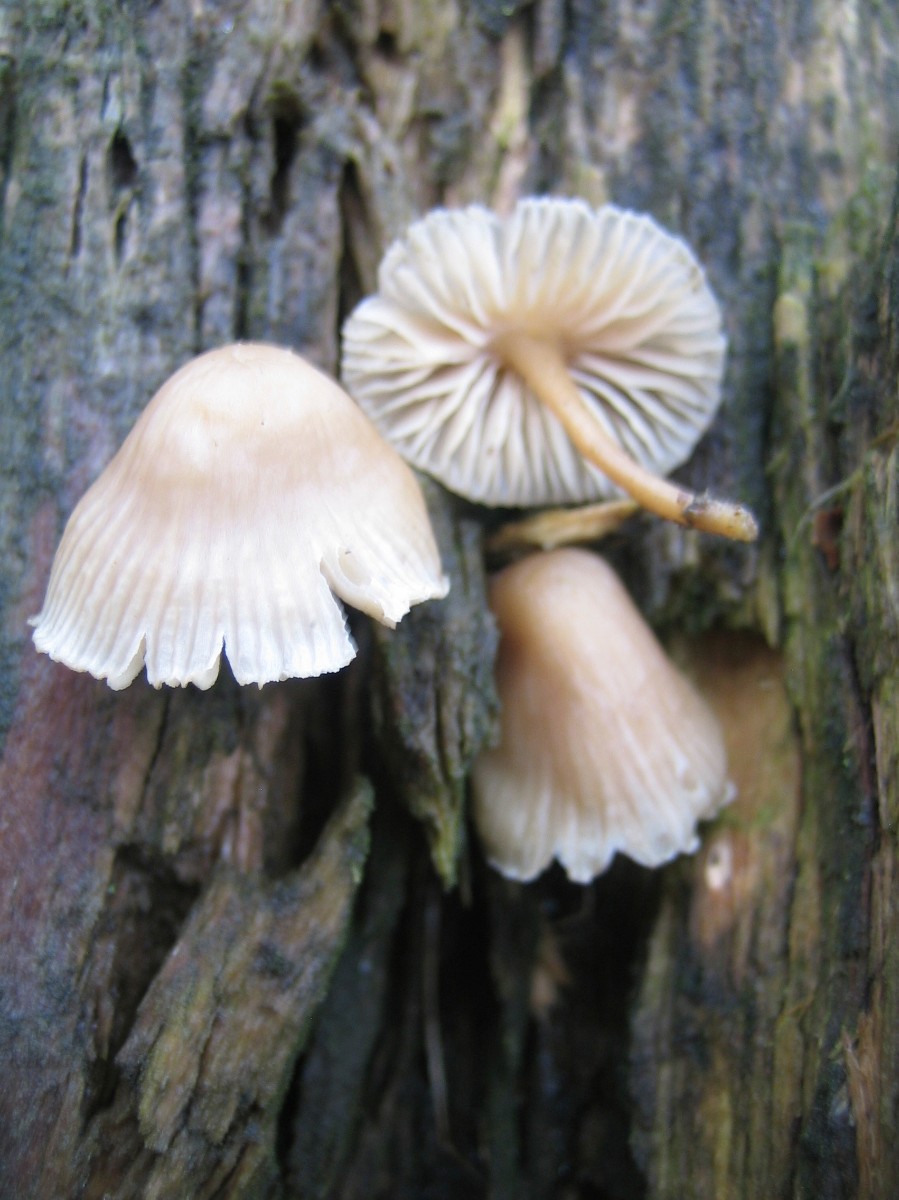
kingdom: Fungi
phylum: Basidiomycota
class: Agaricomycetes
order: Agaricales
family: Mycenaceae
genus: Mycena
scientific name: Mycena galericulata
